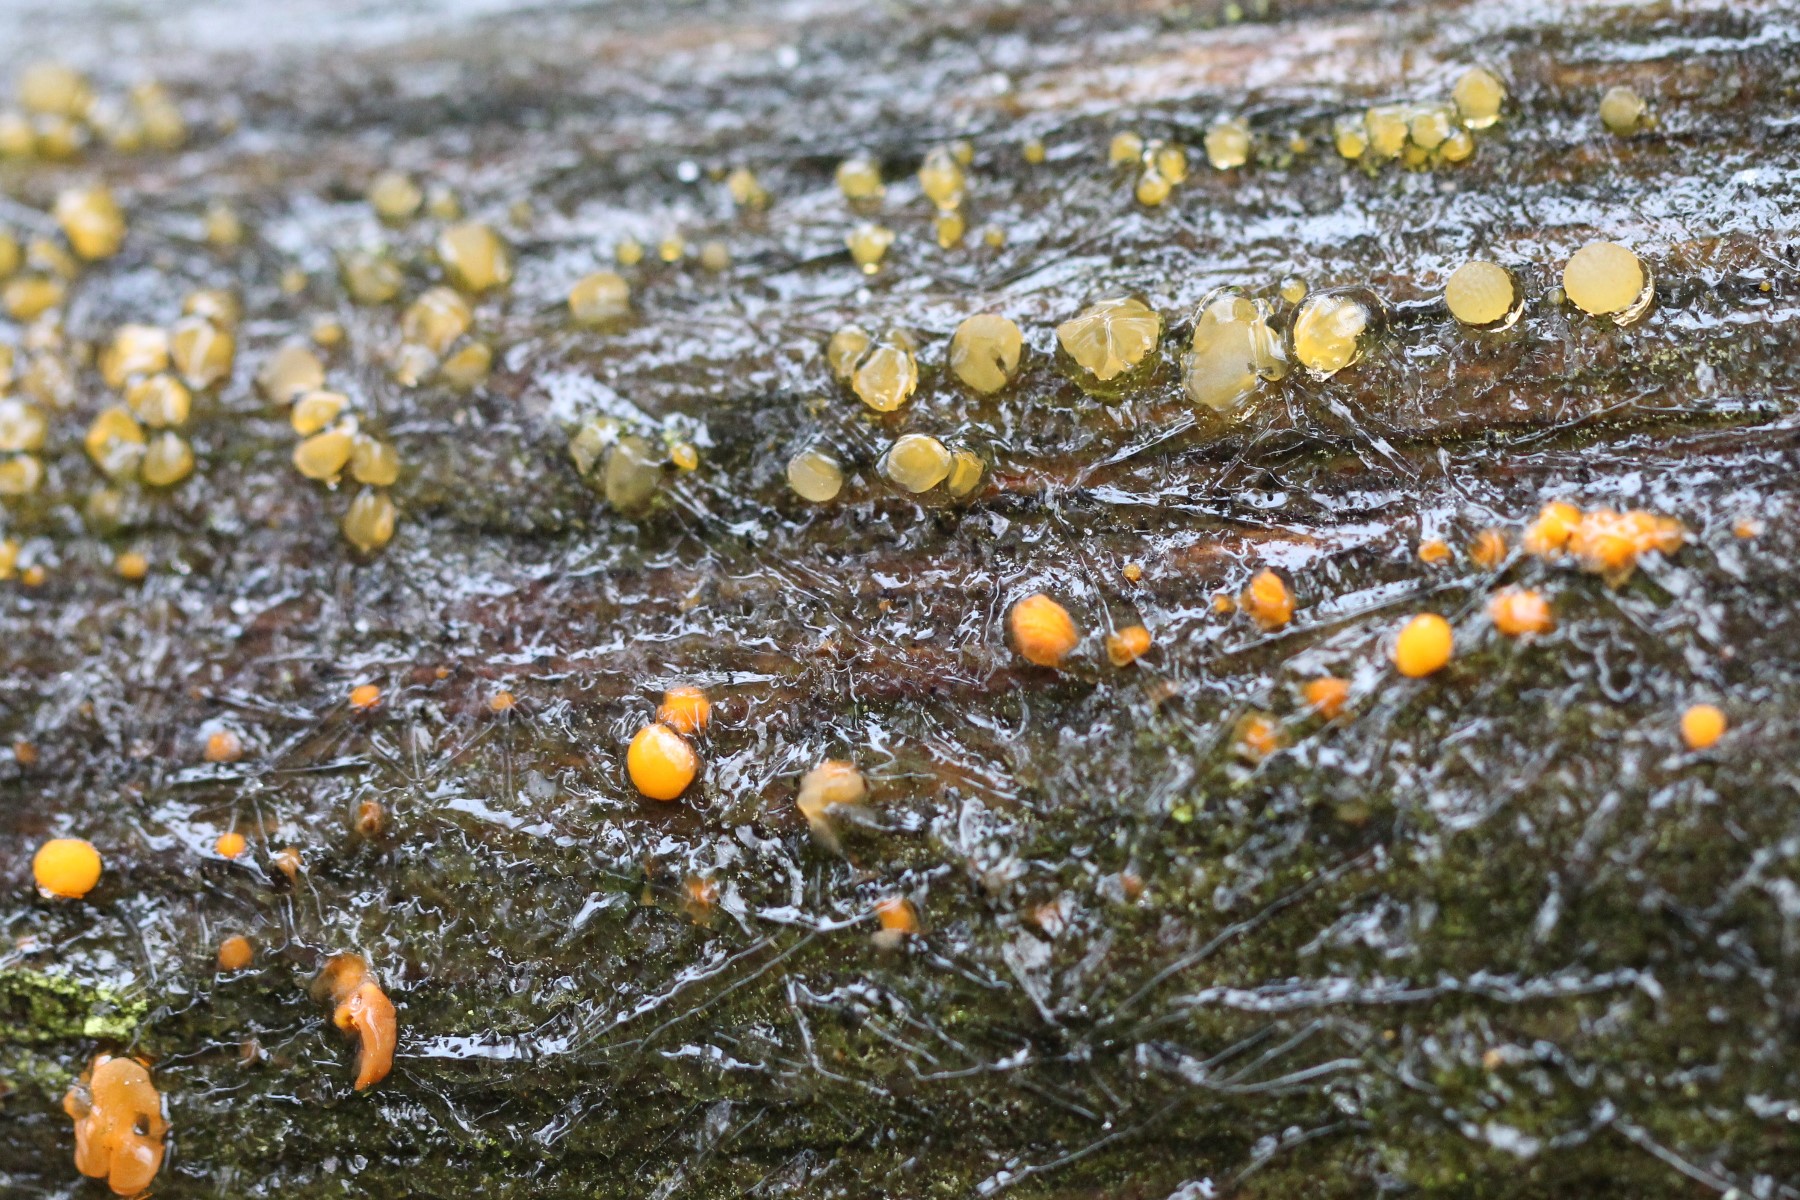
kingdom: Fungi
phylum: Basidiomycota
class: Dacrymycetes
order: Dacrymycetales
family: Dacrymycetaceae
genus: Dacrymyces
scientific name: Dacrymyces stillatus
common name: almindelig tåresvamp
